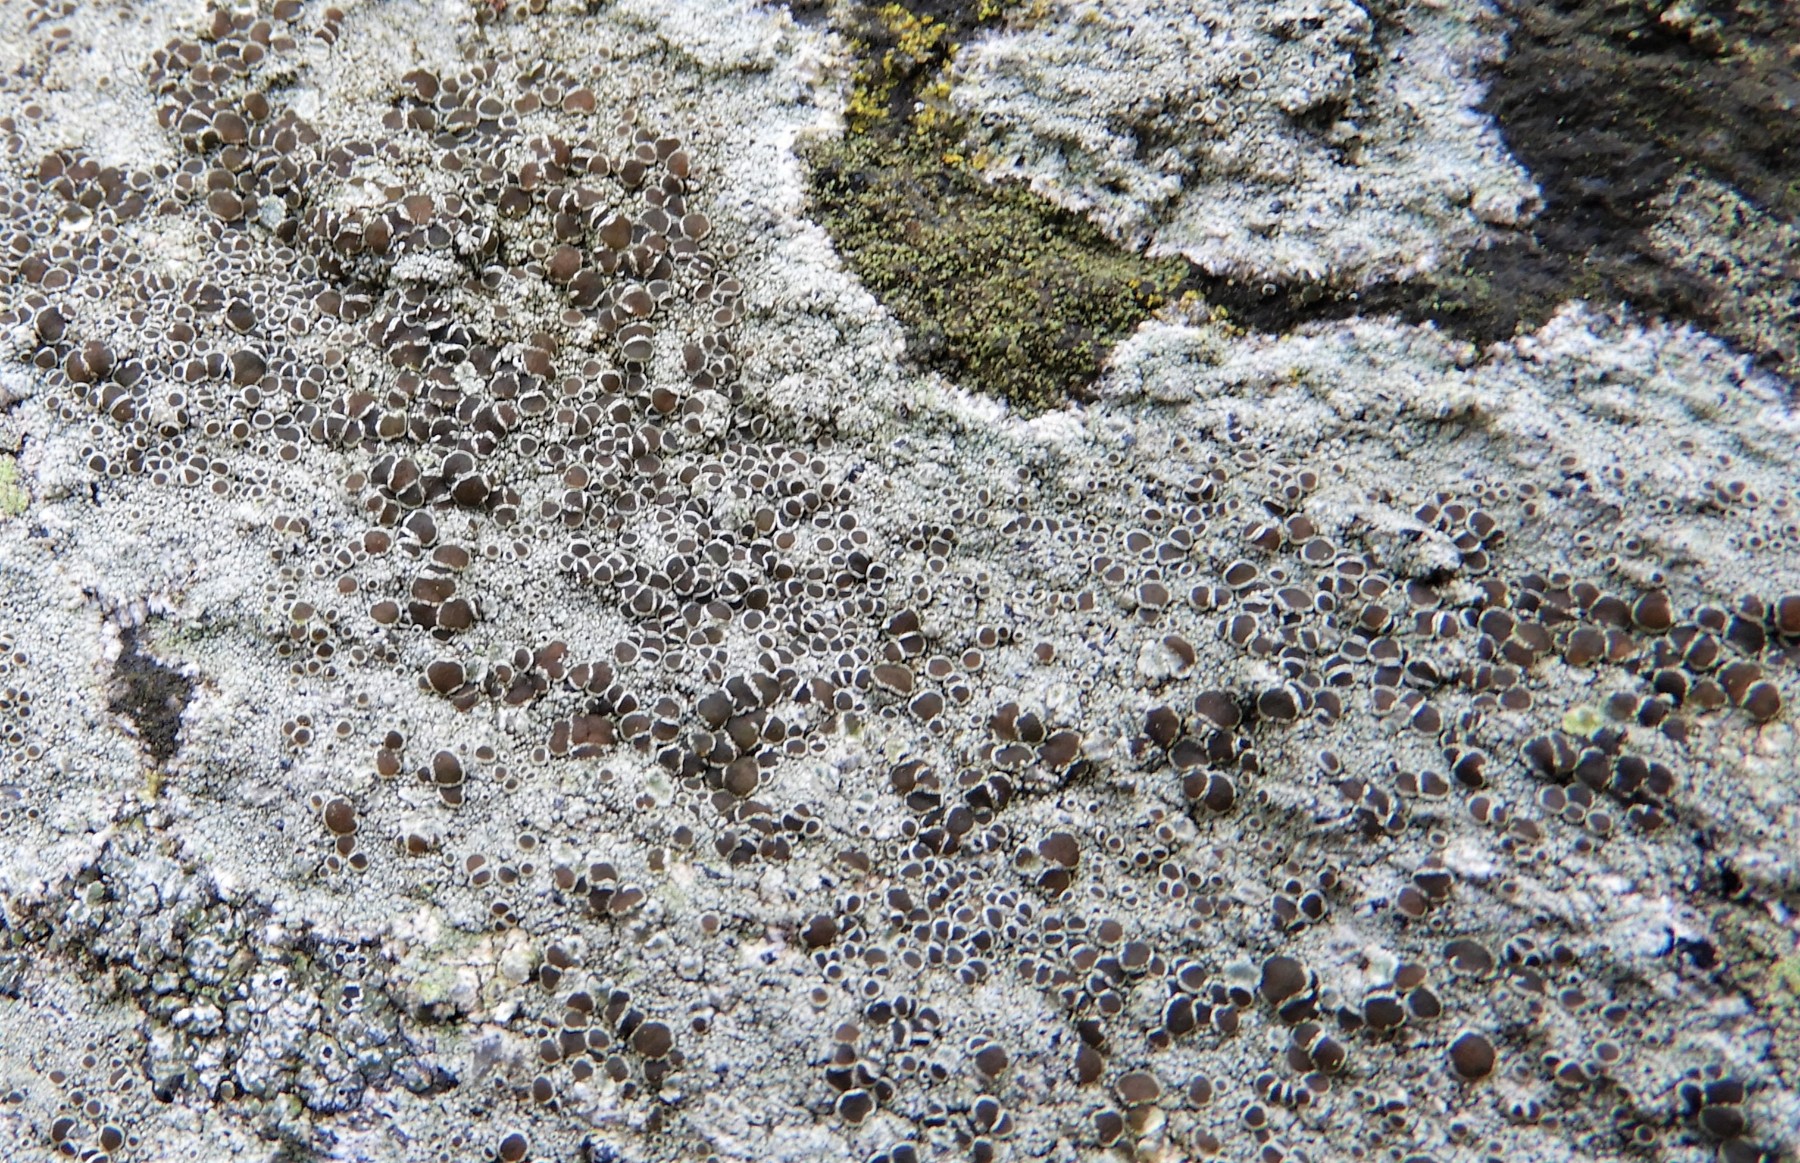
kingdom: Fungi
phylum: Ascomycota
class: Lecanoromycetes
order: Lecanorales
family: Lecanoraceae
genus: Lecanora
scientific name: Lecanora campestris
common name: mur-kantskivelav
